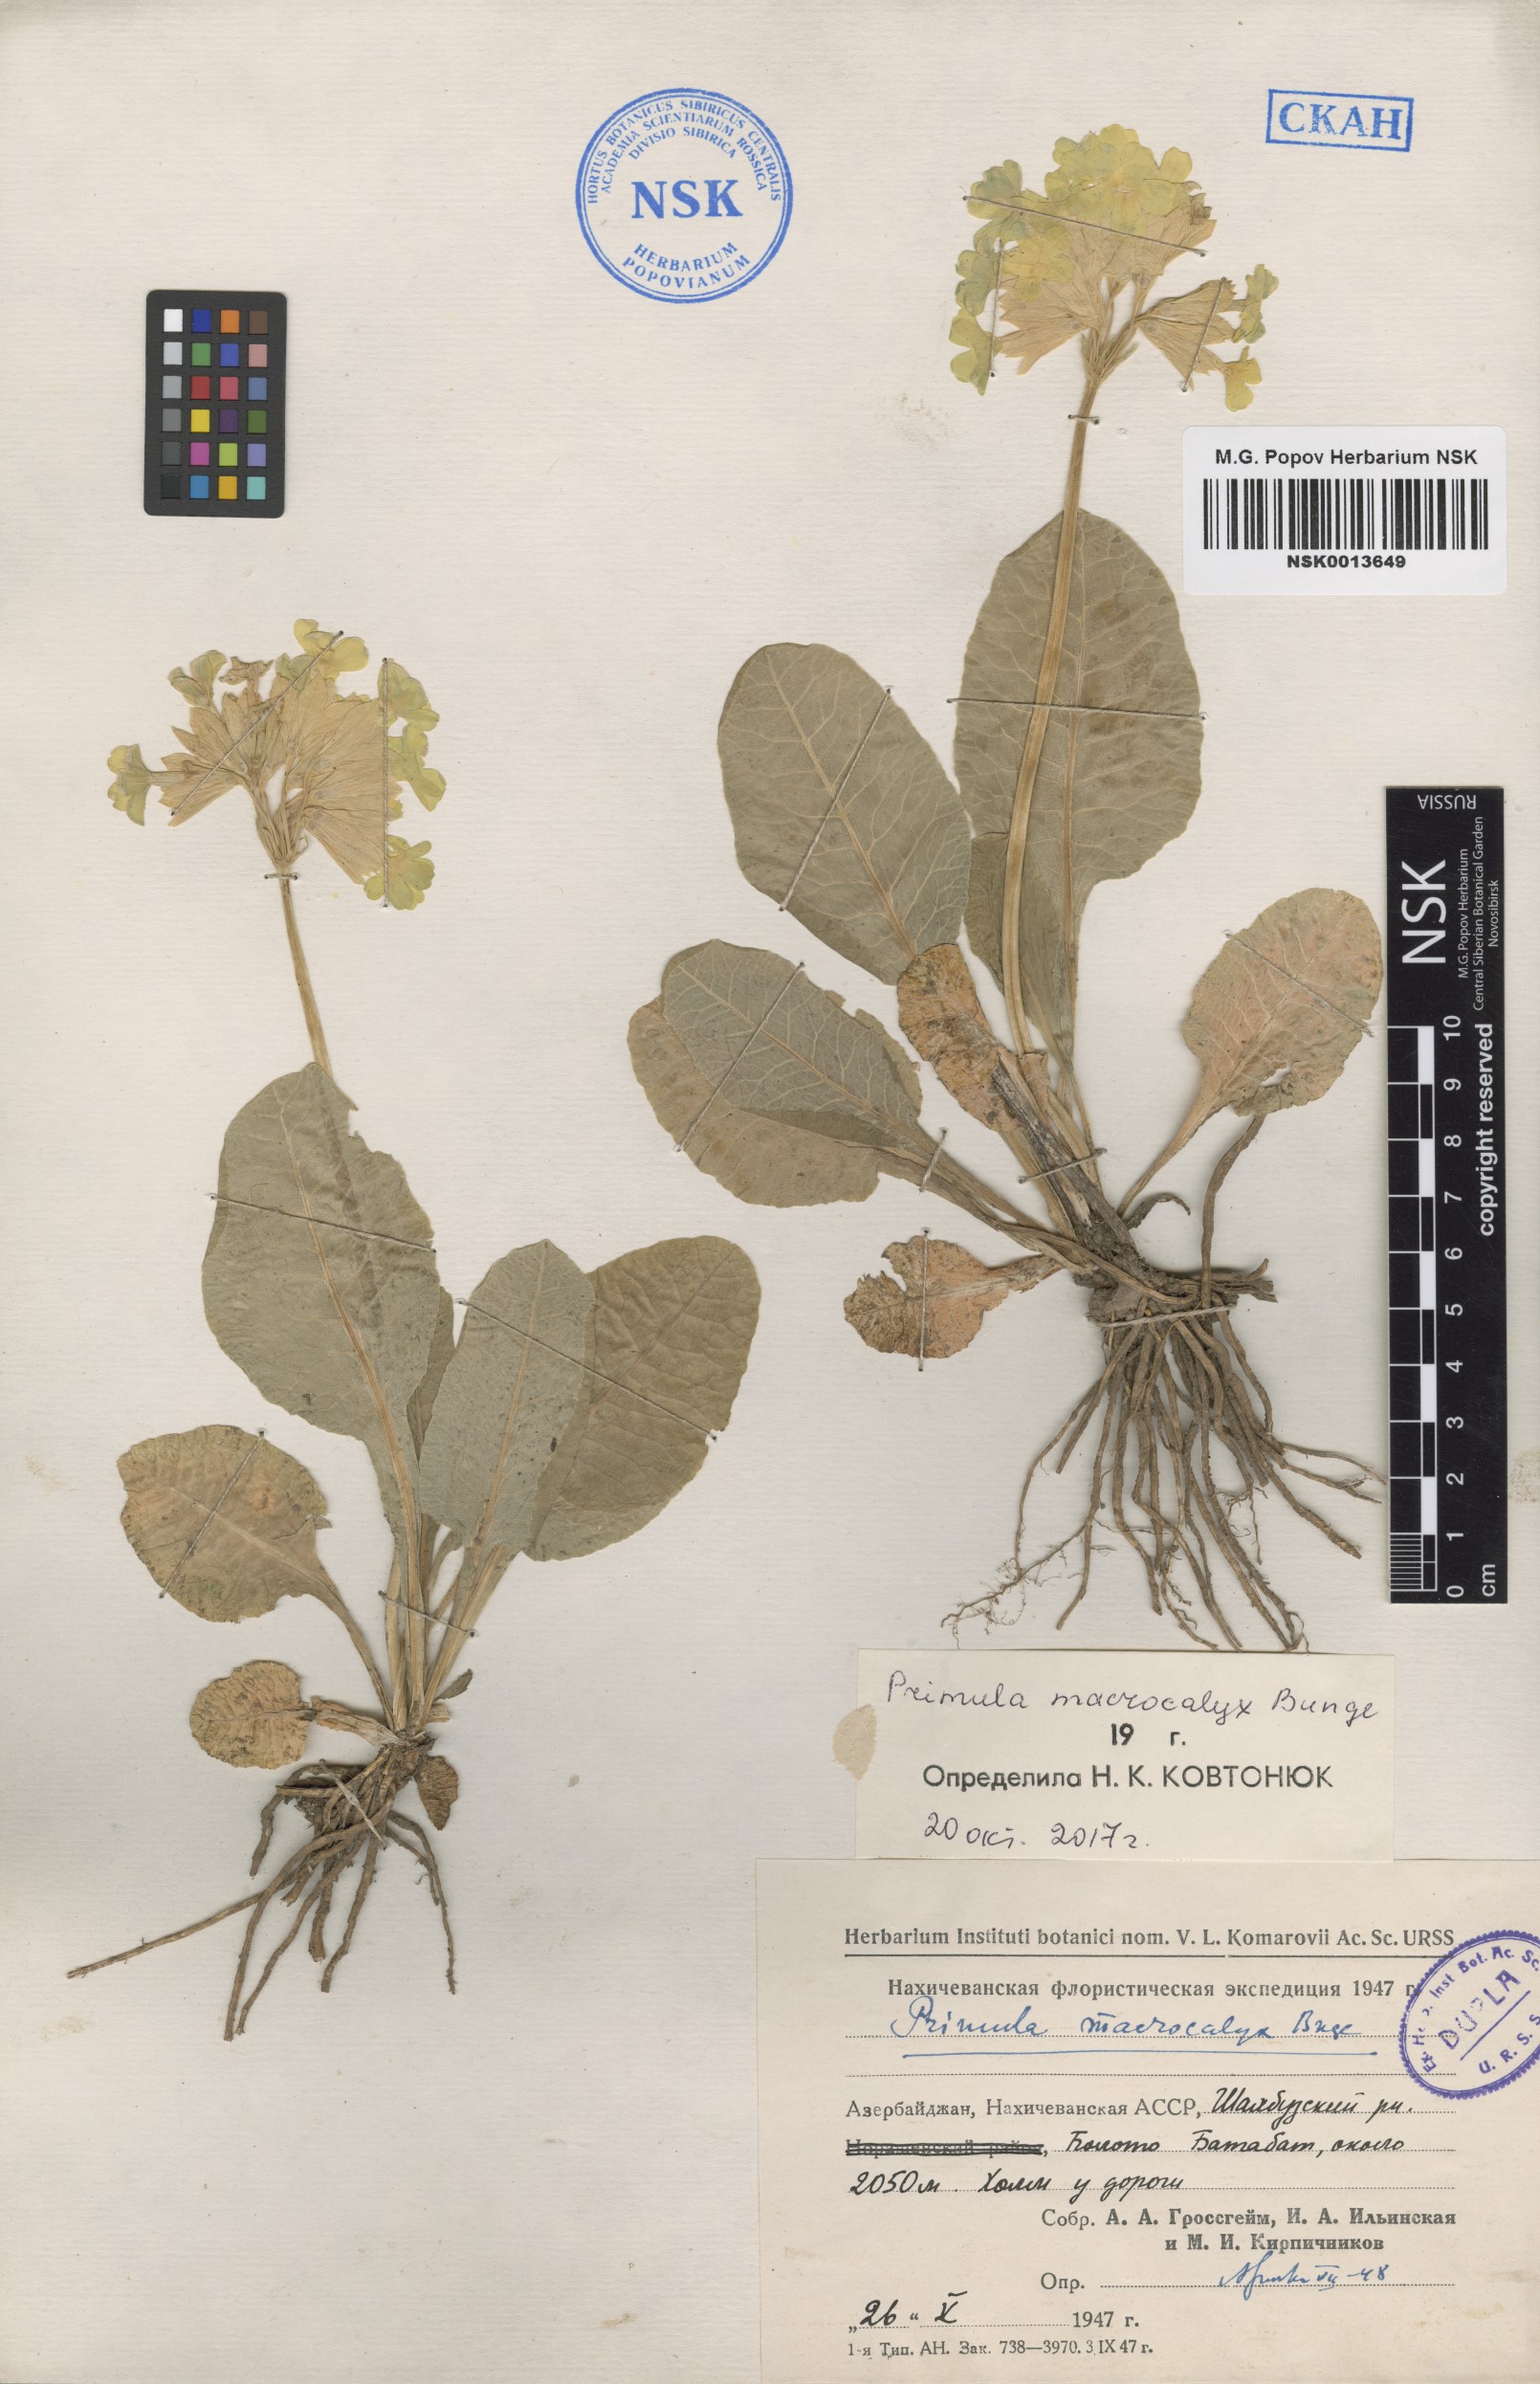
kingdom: Plantae
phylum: Tracheophyta
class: Magnoliopsida
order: Ericales
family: Primulaceae
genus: Primula
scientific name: Primula veris
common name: Cowslip
